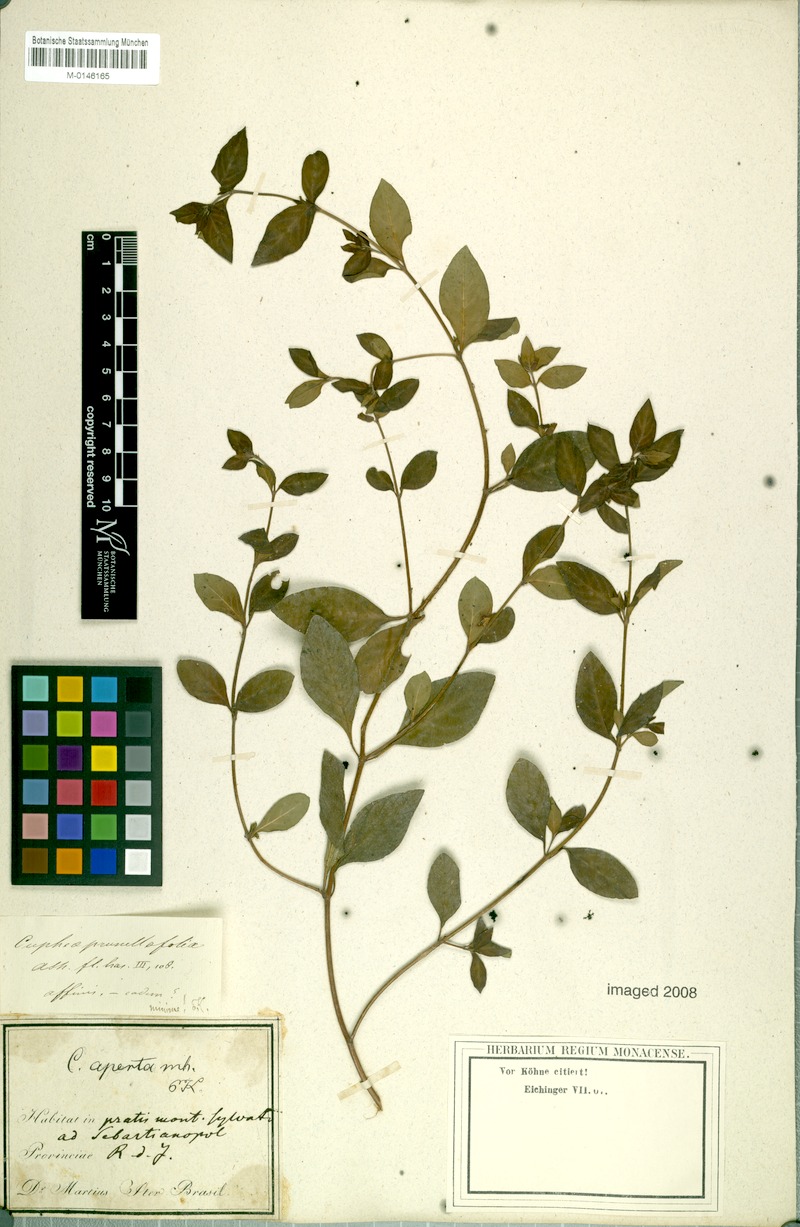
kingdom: Plantae
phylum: Tracheophyta
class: Magnoliopsida
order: Myrtales
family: Lythraceae
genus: Cuphea
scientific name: Cuphea aperta
